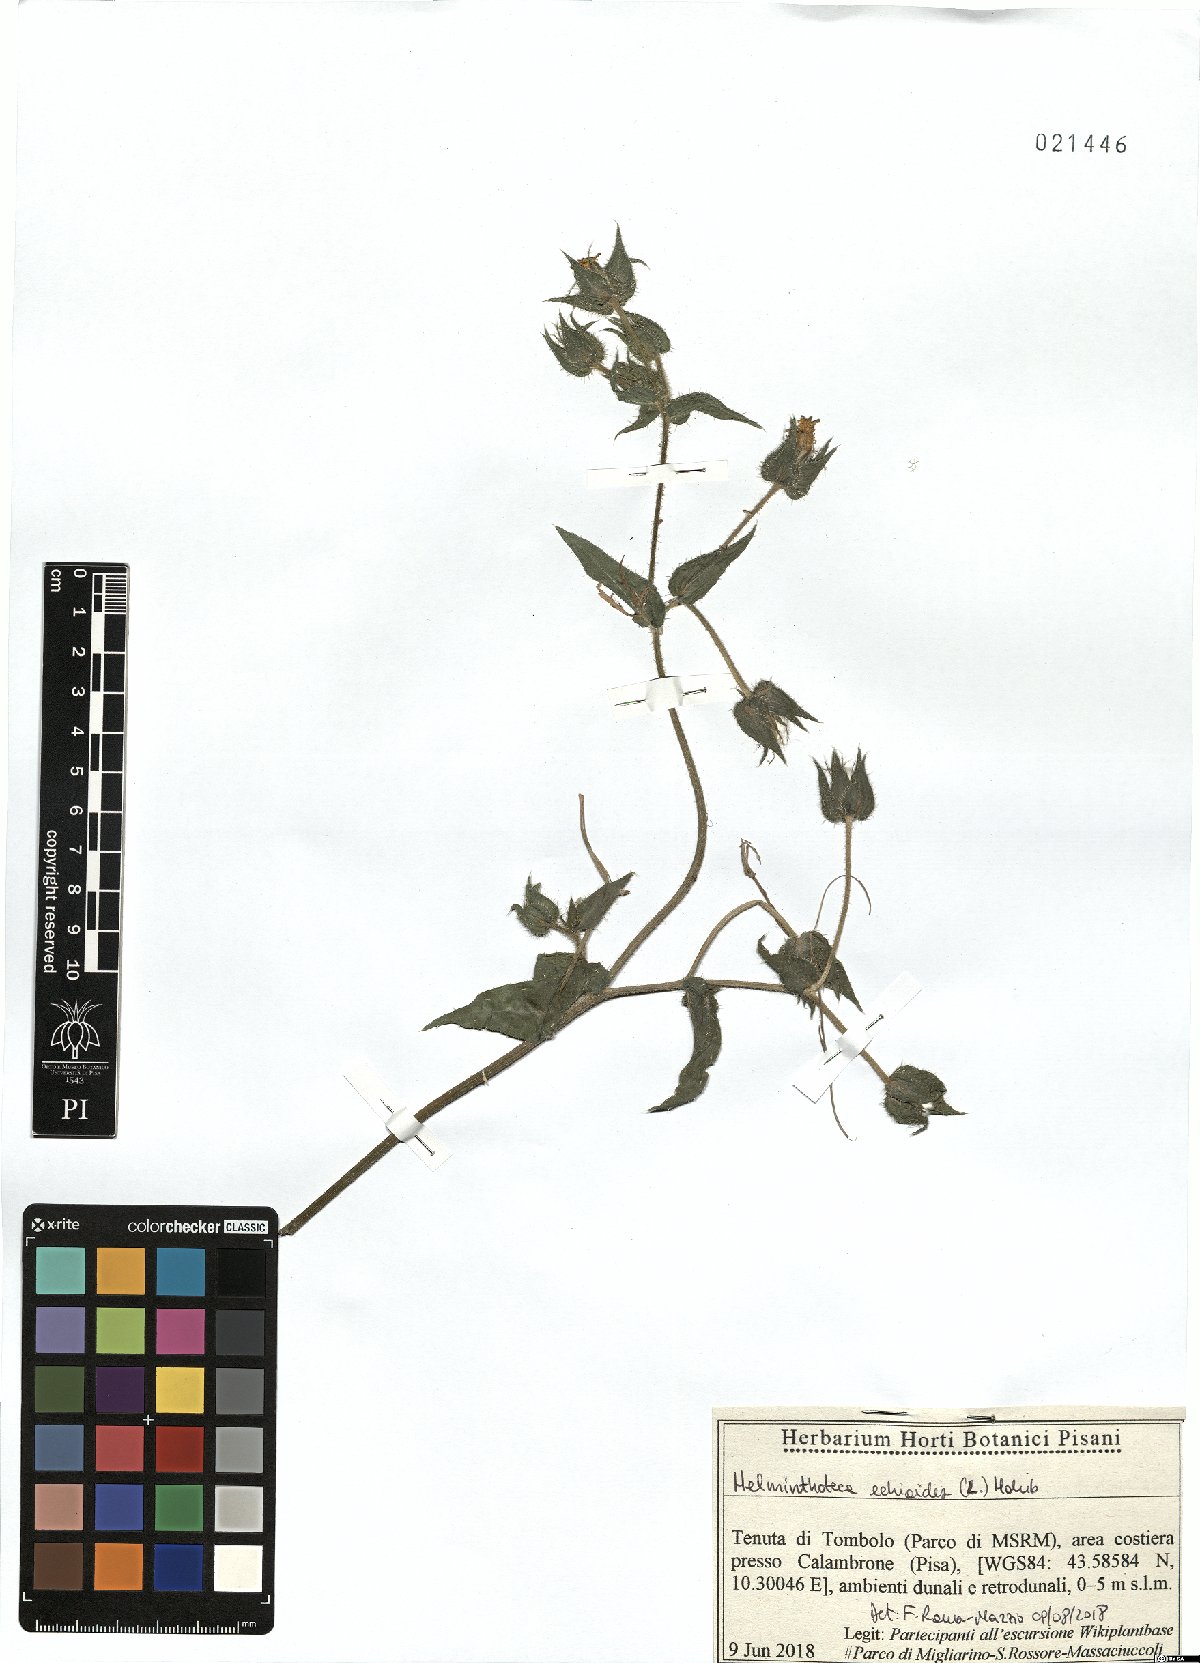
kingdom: Plantae
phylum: Tracheophyta
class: Magnoliopsida
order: Asterales
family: Asteraceae
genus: Helminthotheca
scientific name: Helminthotheca echioides
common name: Ox-tongue
